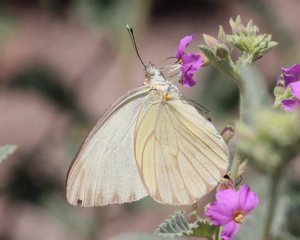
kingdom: Animalia
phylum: Arthropoda
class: Insecta
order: Lepidoptera
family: Pieridae
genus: Ascia
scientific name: Ascia monuste
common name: Great Southern White
